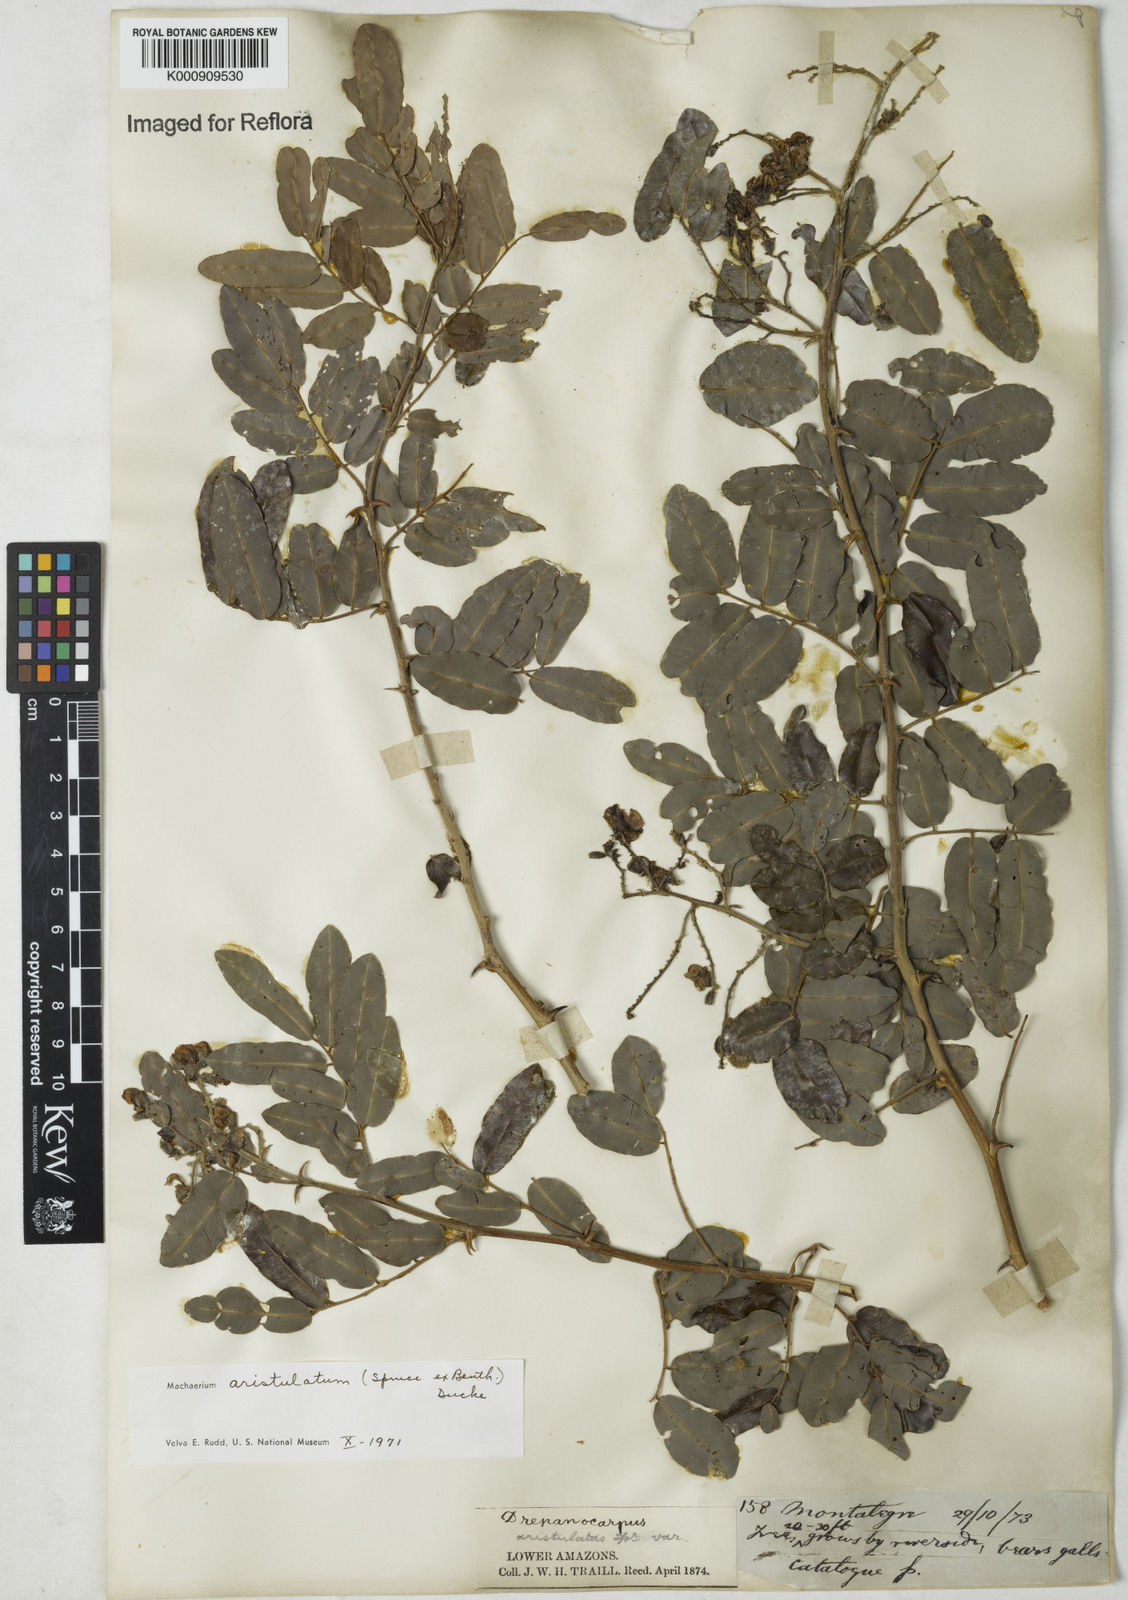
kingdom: Plantae
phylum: Tracheophyta
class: Magnoliopsida
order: Fabales
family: Fabaceae
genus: Machaerium
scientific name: Machaerium aristulatum
